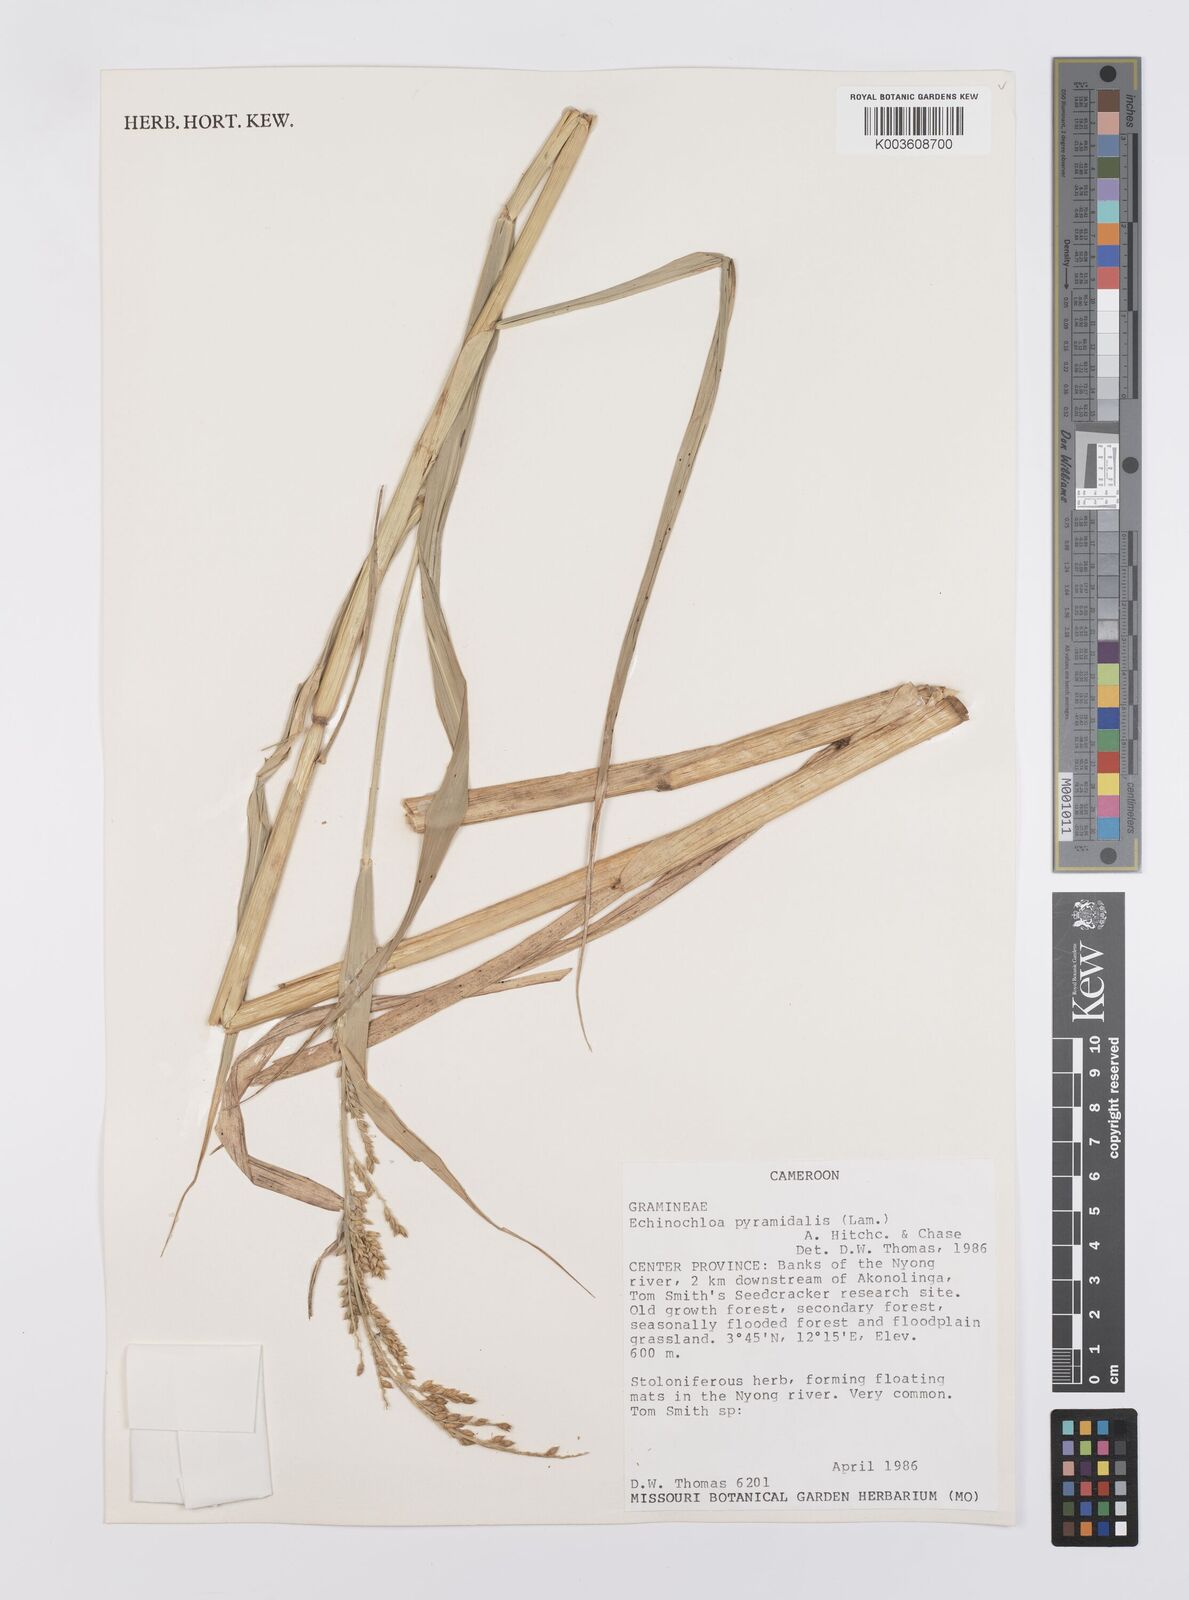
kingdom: Plantae
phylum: Tracheophyta
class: Liliopsida
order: Poales
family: Poaceae
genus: Echinochloa
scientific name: Echinochloa pyramidalis
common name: Antelope grass
